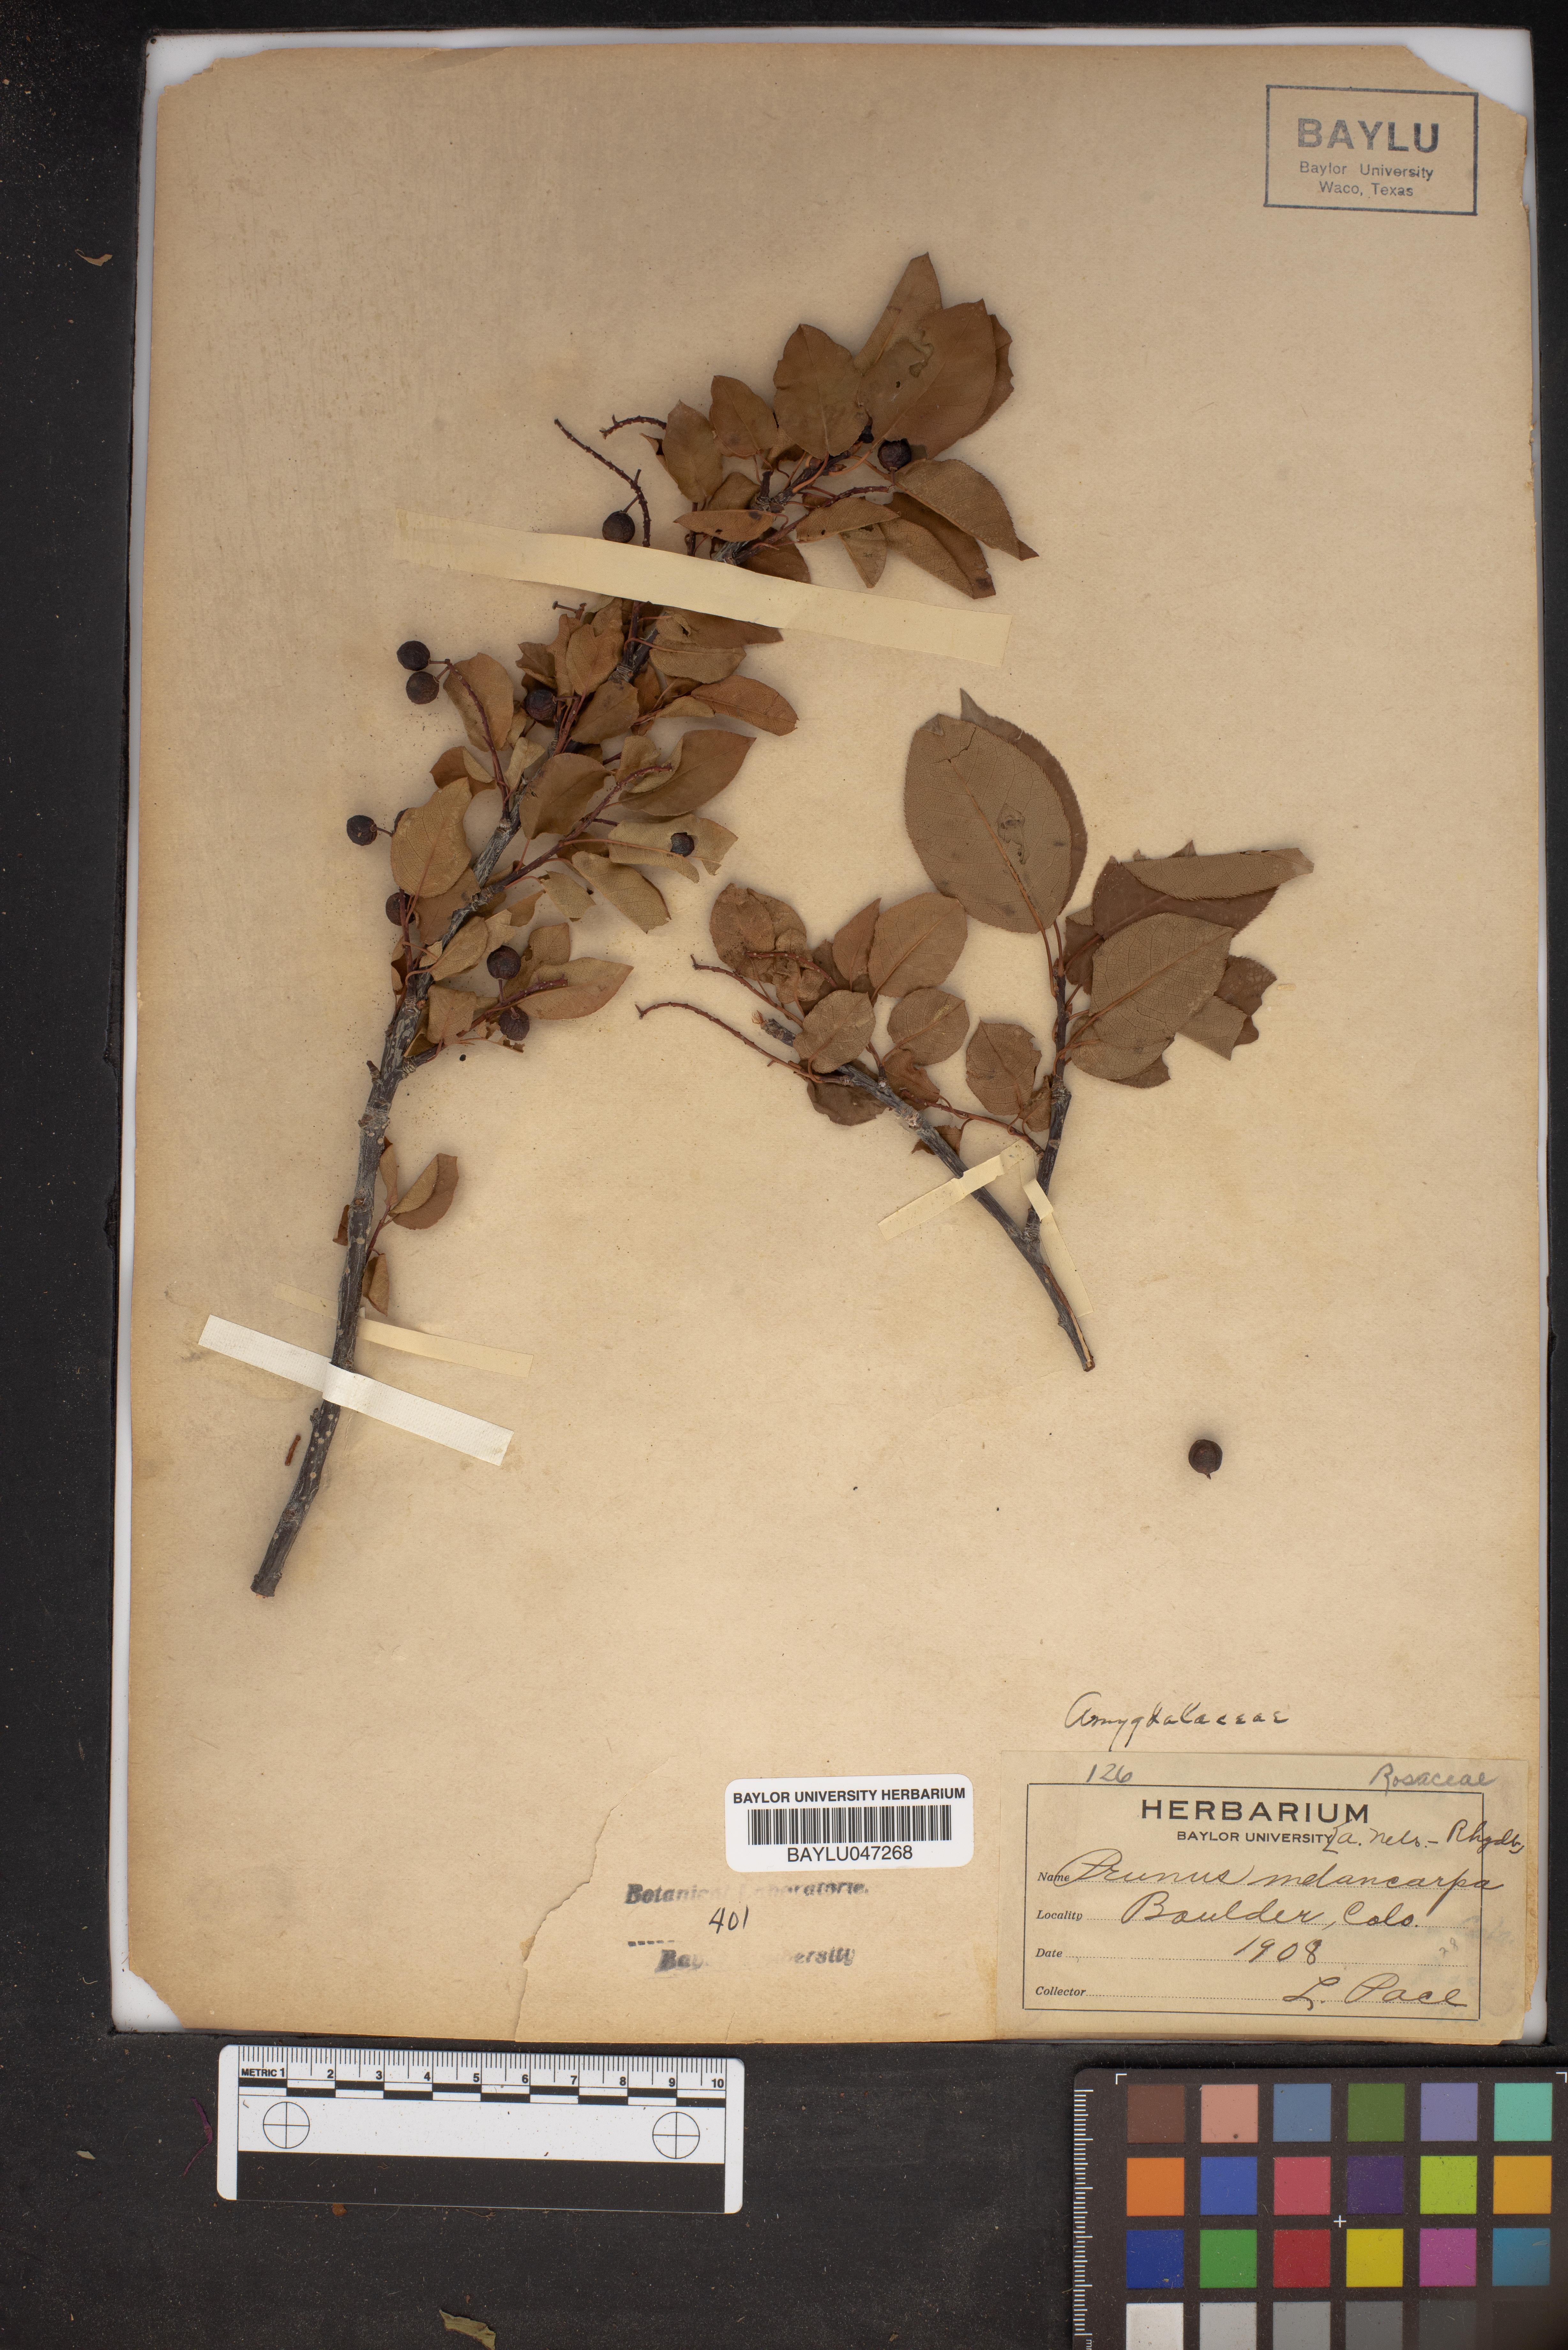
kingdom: Plantae
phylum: Tracheophyta
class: Magnoliopsida
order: Rosales
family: Rosaceae
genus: Prunus
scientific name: Prunus virginiana
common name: Chokecherry
